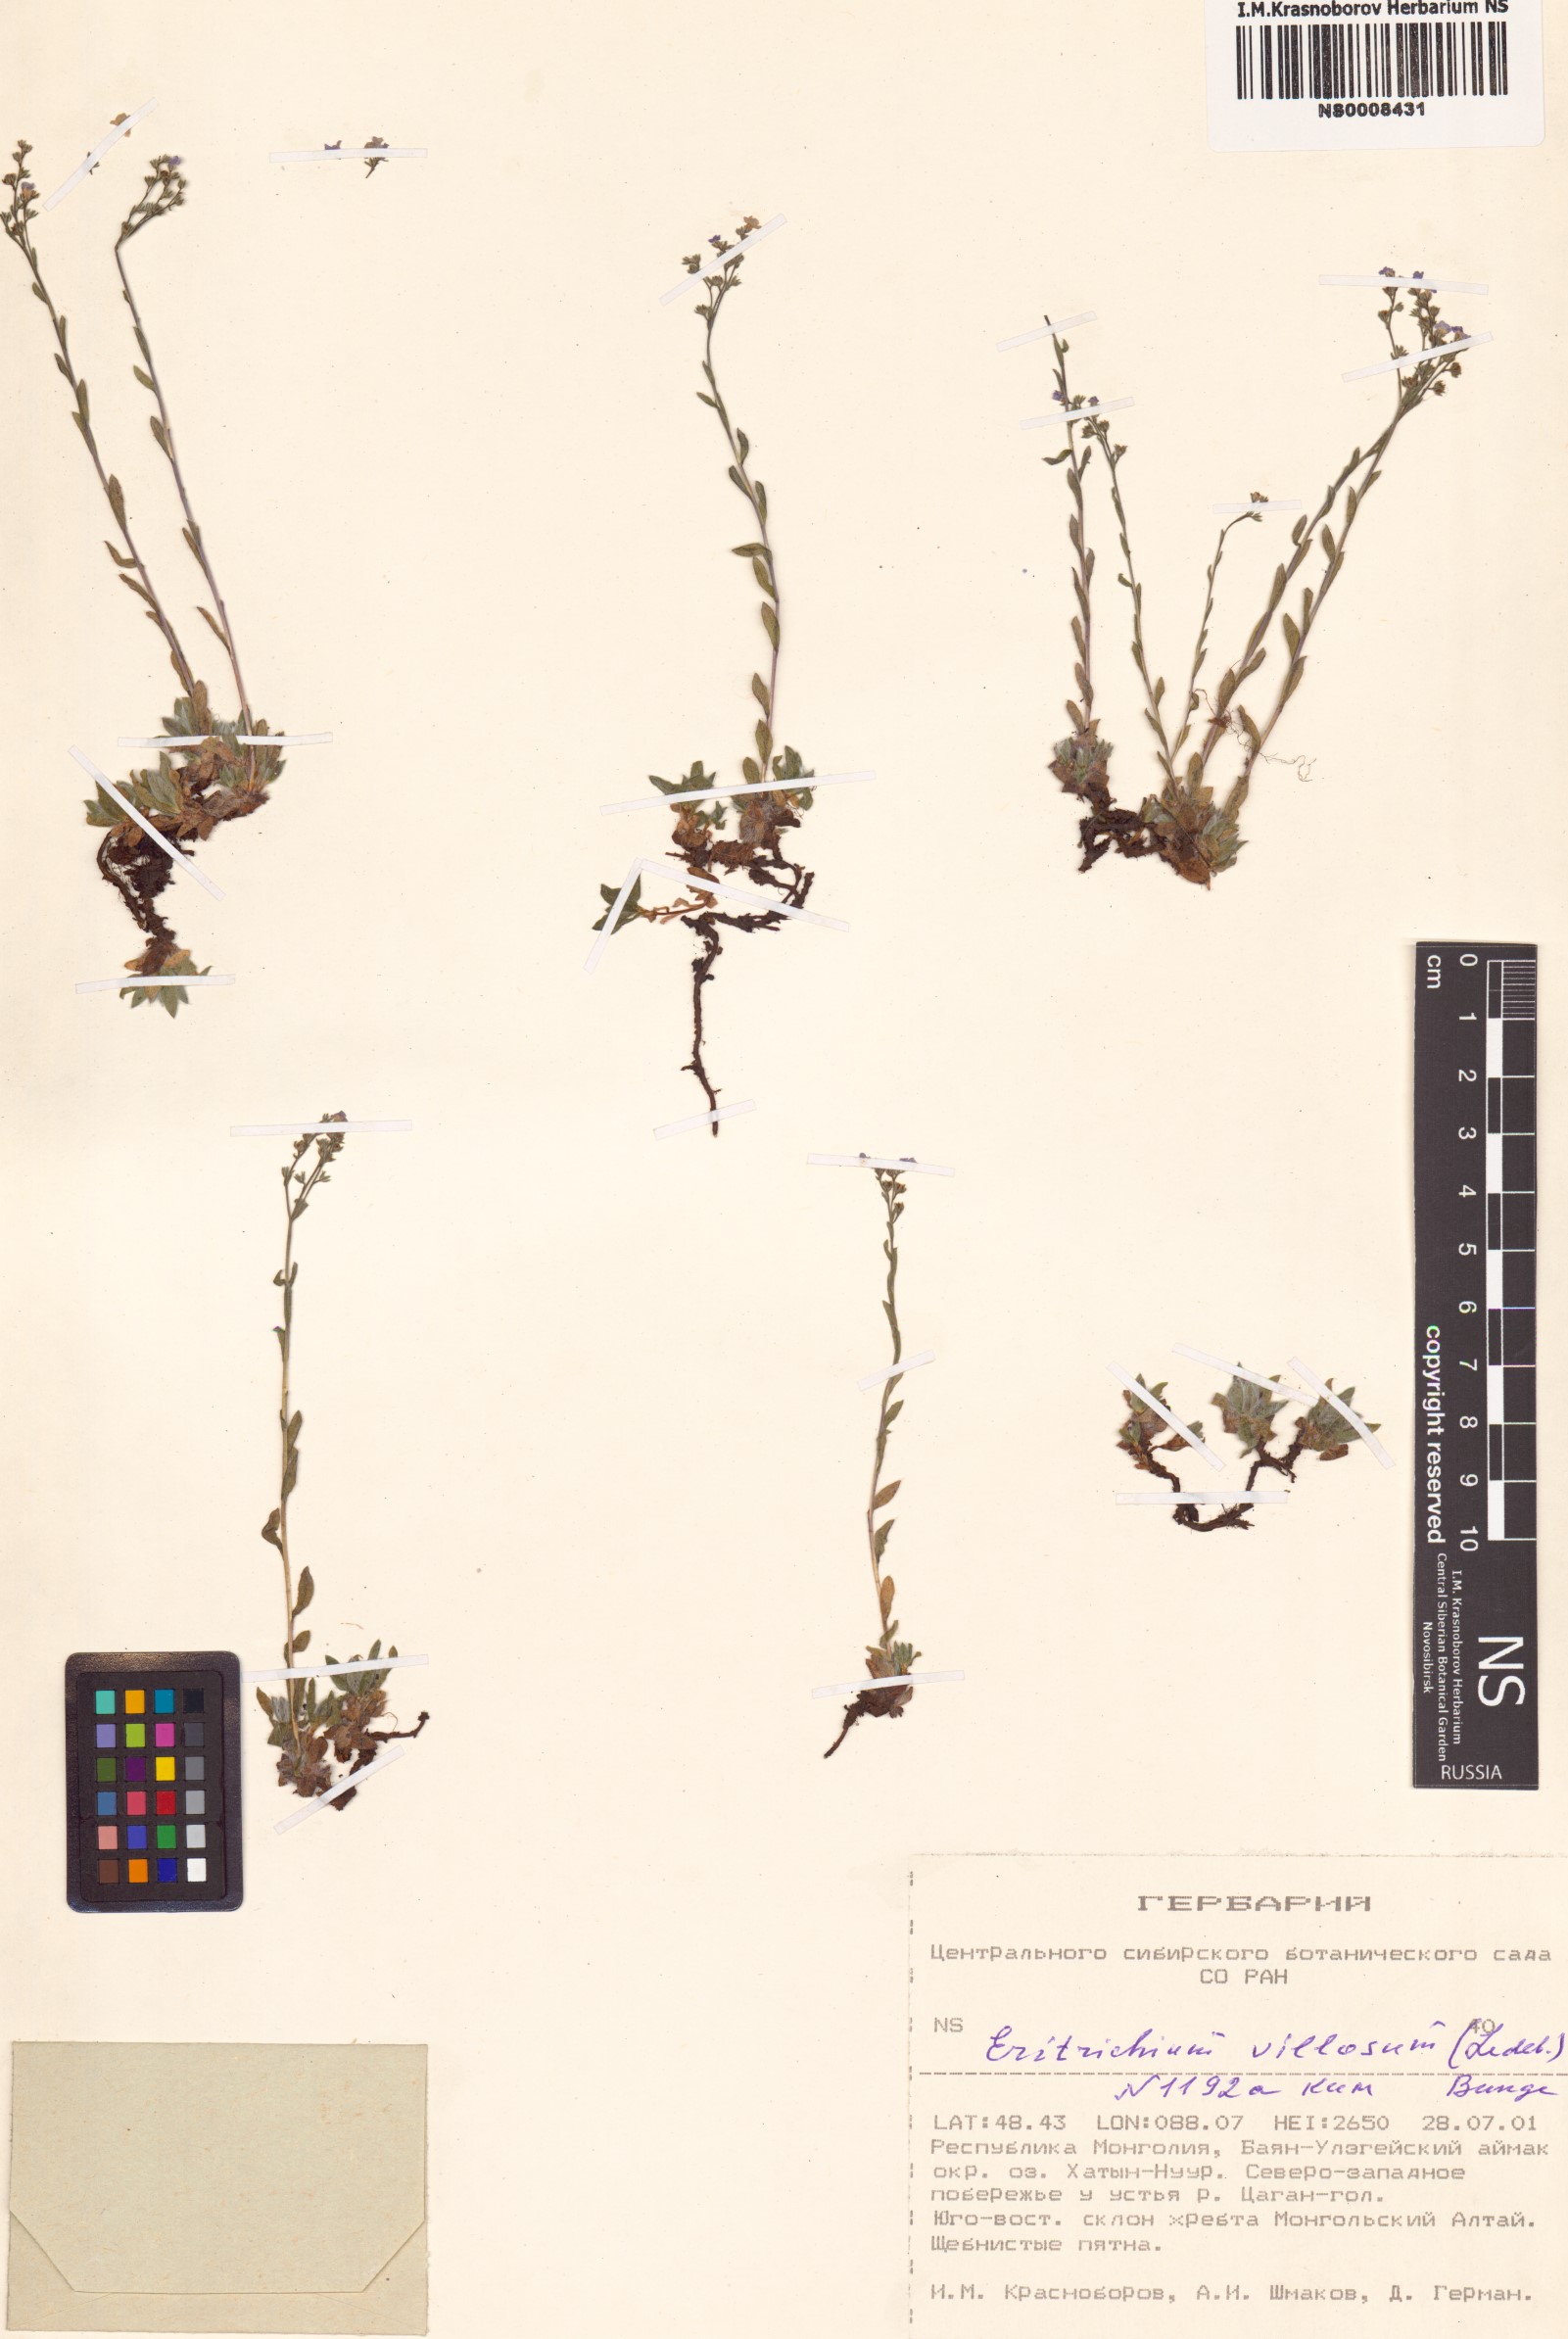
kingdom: Plantae
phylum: Tracheophyta
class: Magnoliopsida
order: Boraginales
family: Boraginaceae
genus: Eritrichium
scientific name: Eritrichium villosum
